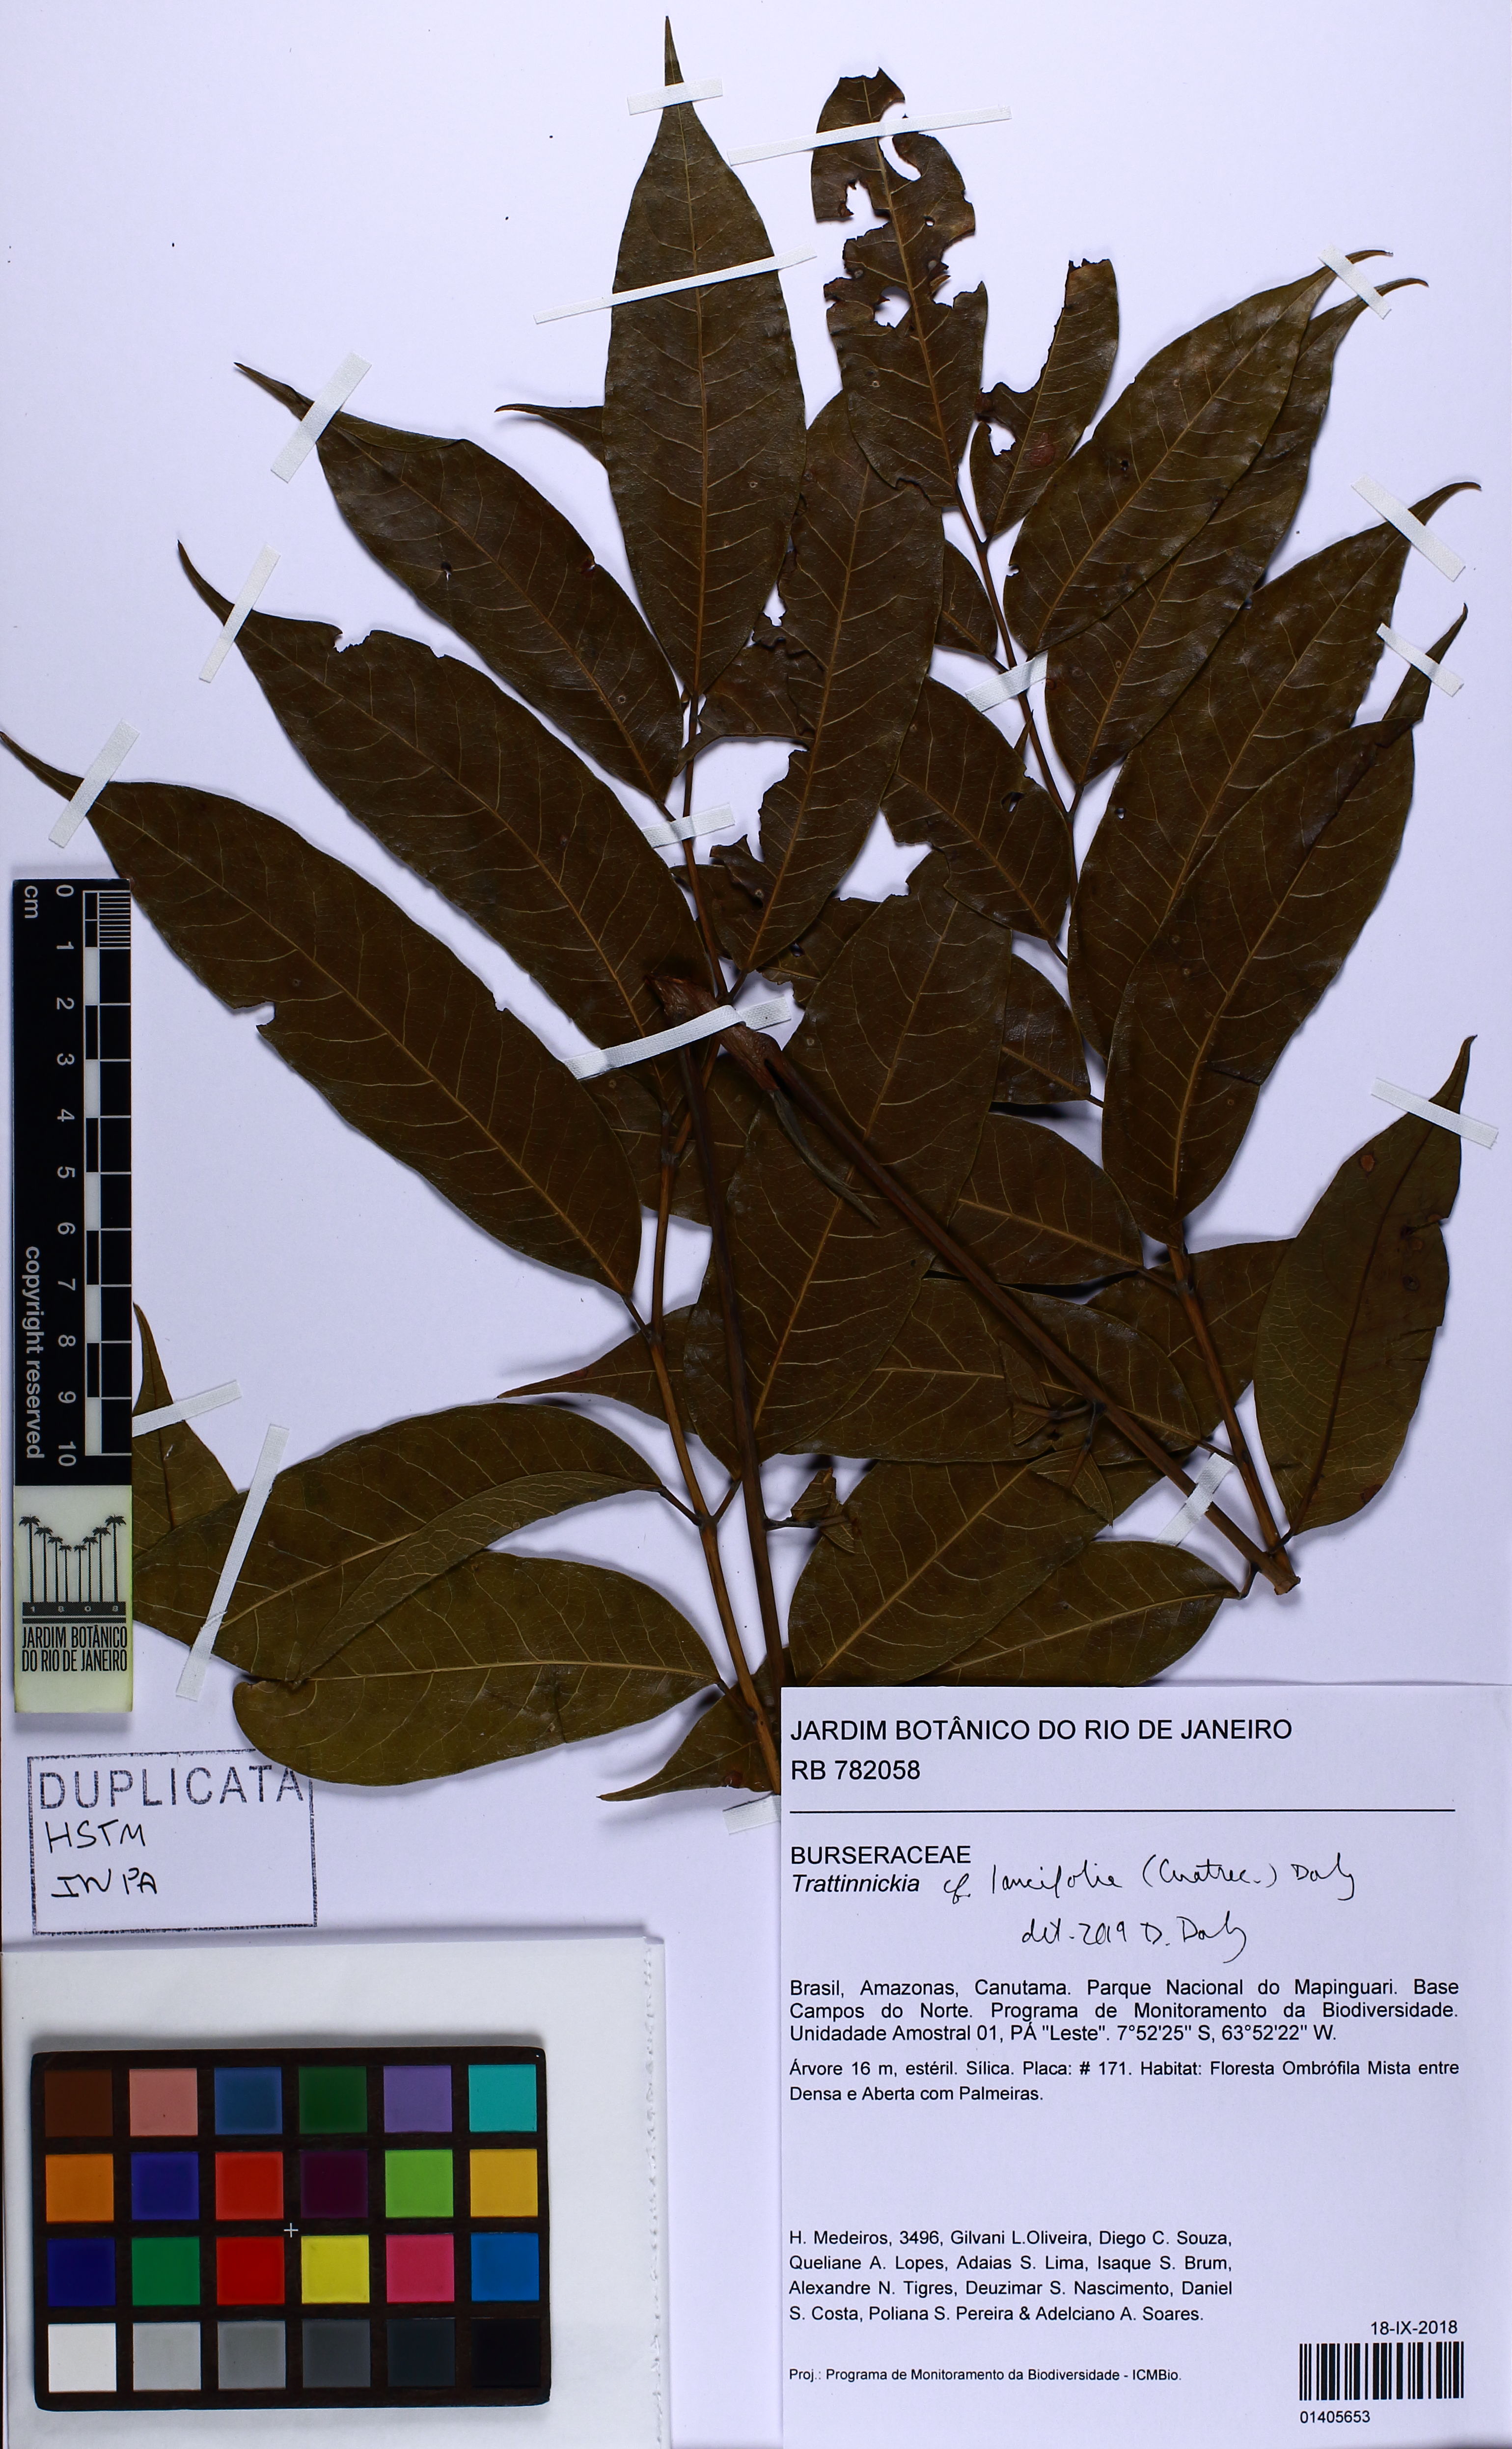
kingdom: Plantae
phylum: Tracheophyta
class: Magnoliopsida
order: Sapindales
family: Burseraceae
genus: Trattinnickia
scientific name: Trattinnickia lancifolia
